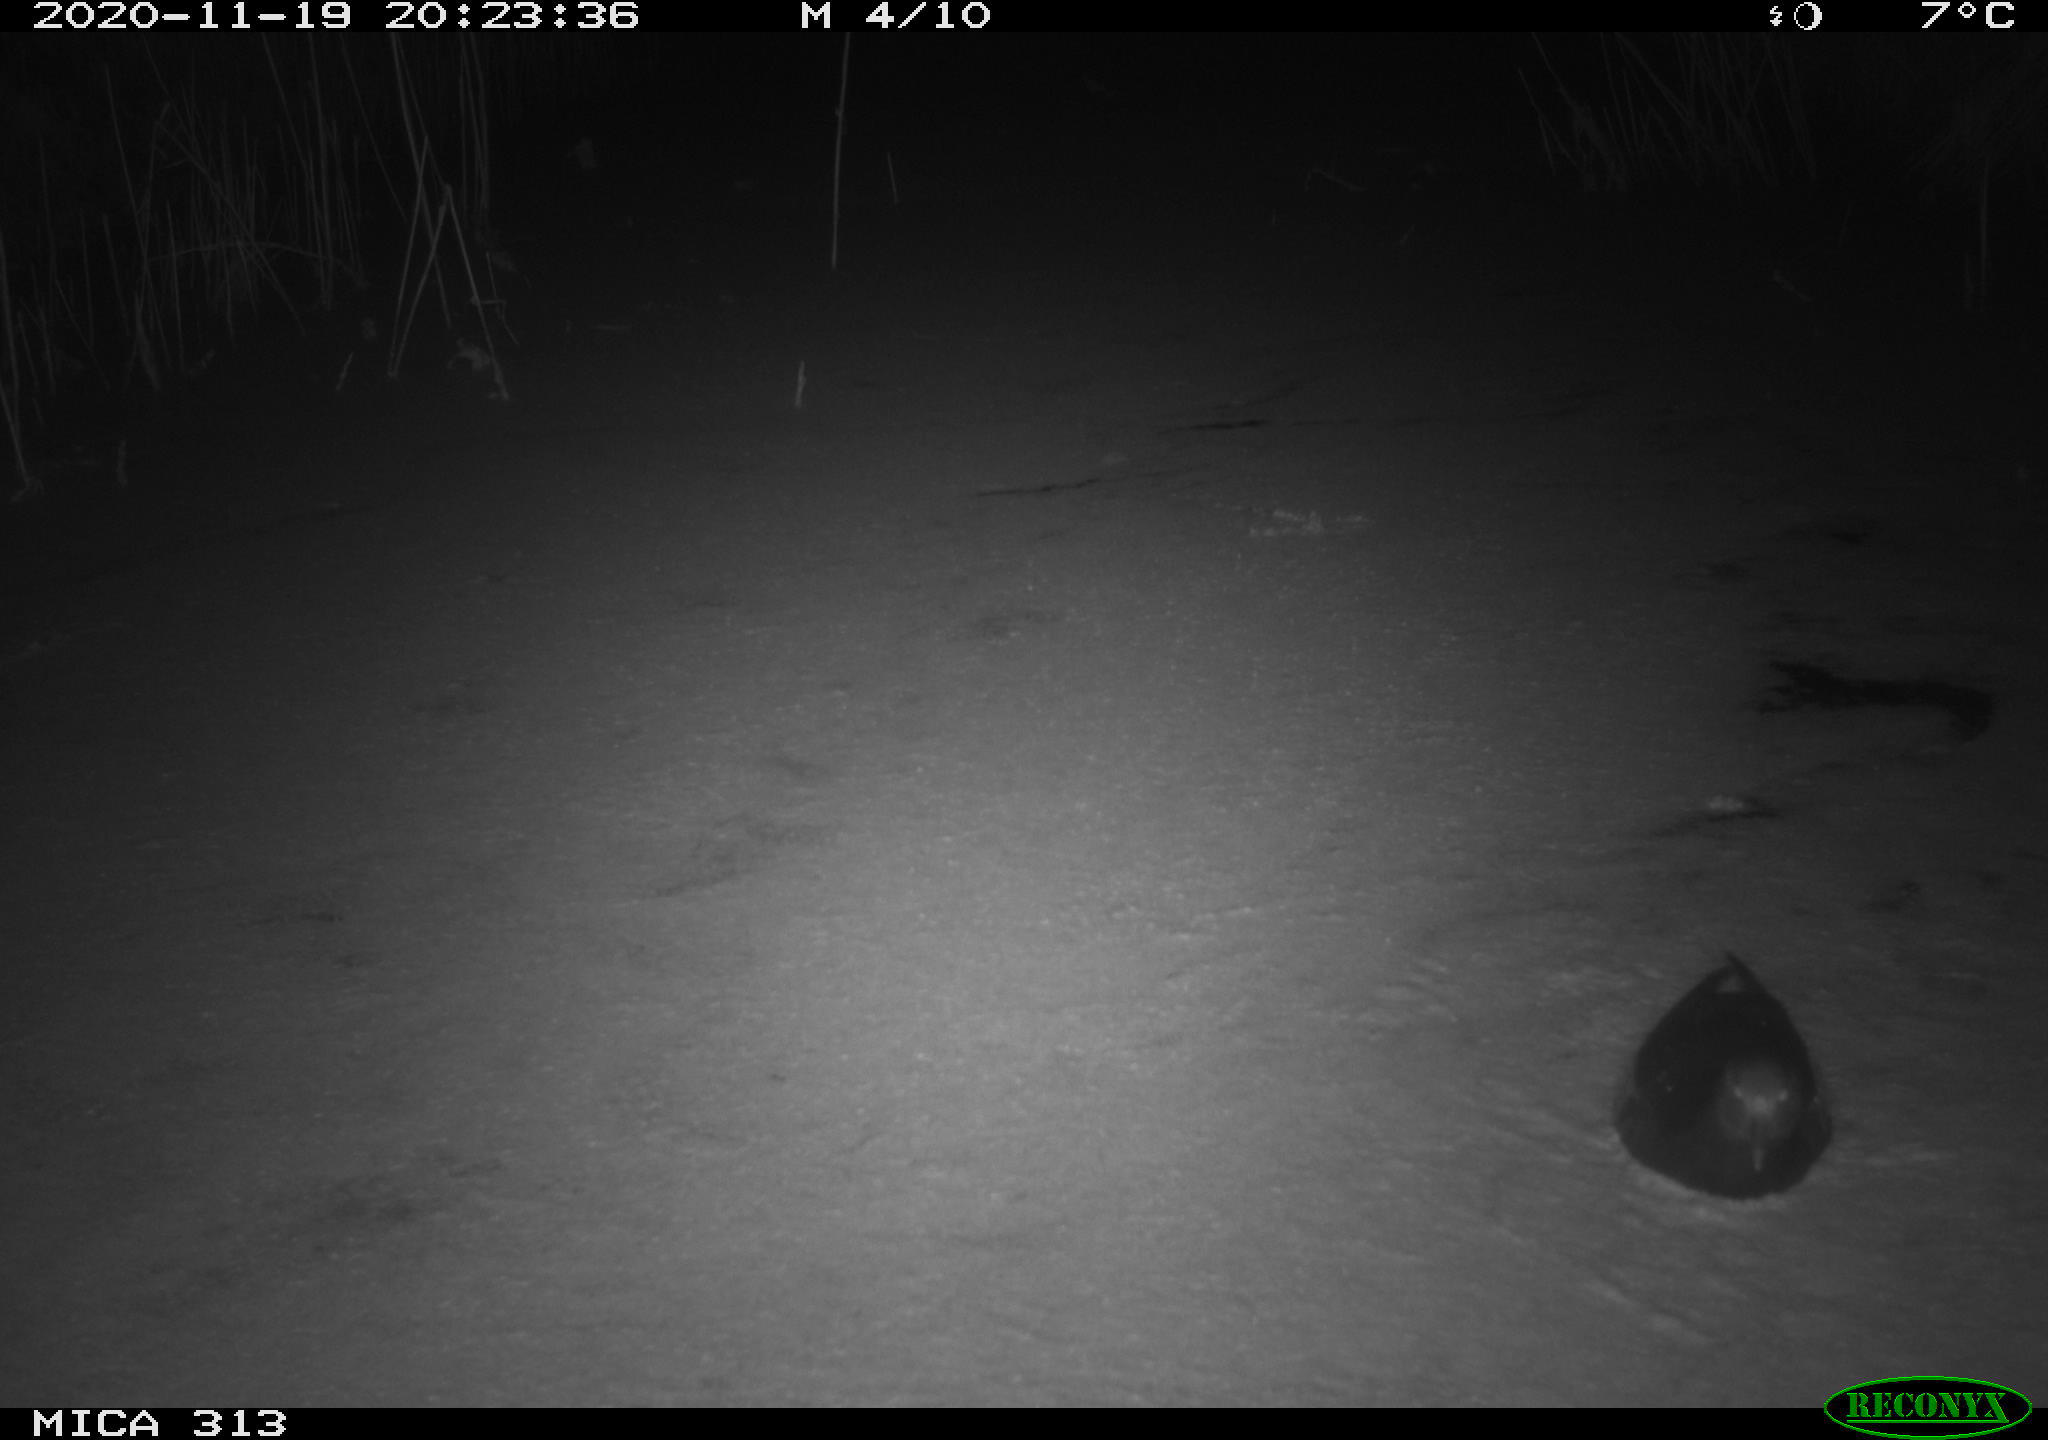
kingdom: Animalia
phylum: Chordata
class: Aves
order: Gruiformes
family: Rallidae
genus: Fulica
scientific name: Fulica atra
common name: Eurasian coot
